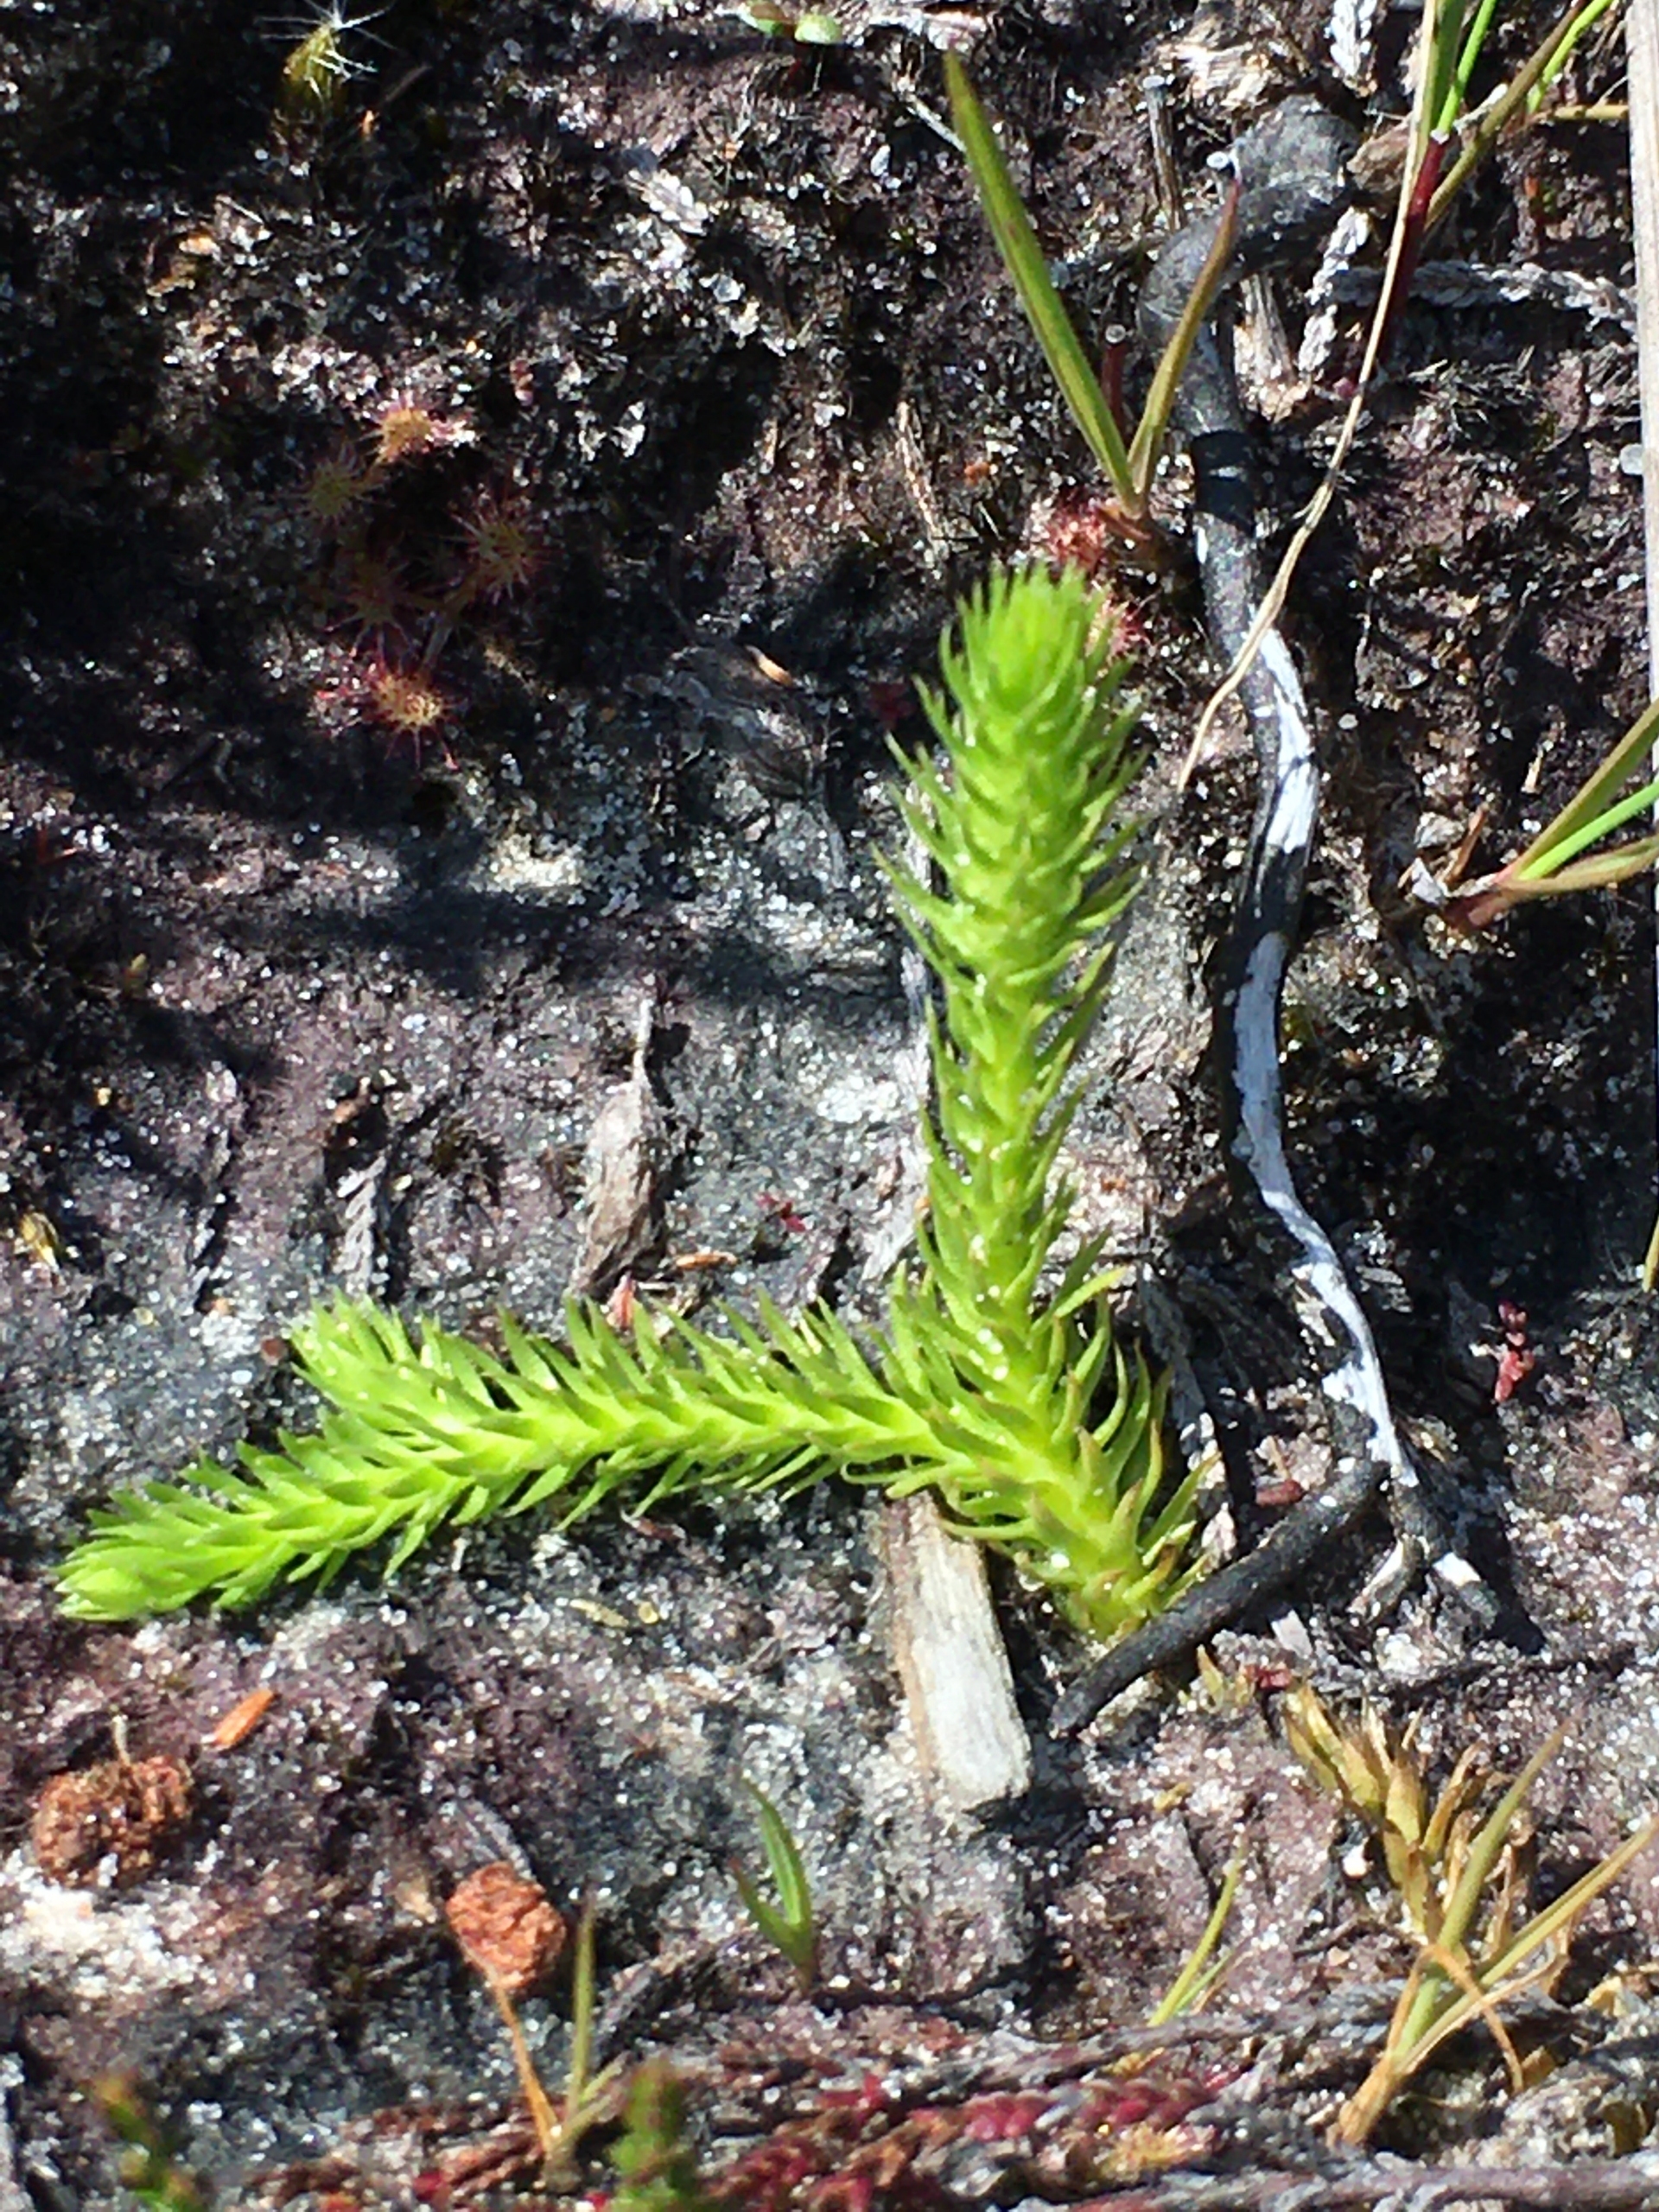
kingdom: Plantae
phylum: Tracheophyta
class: Lycopodiopsida
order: Lycopodiales
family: Lycopodiaceae
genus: Lycopodiella
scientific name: Lycopodiella inundata
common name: Liden ulvefod
